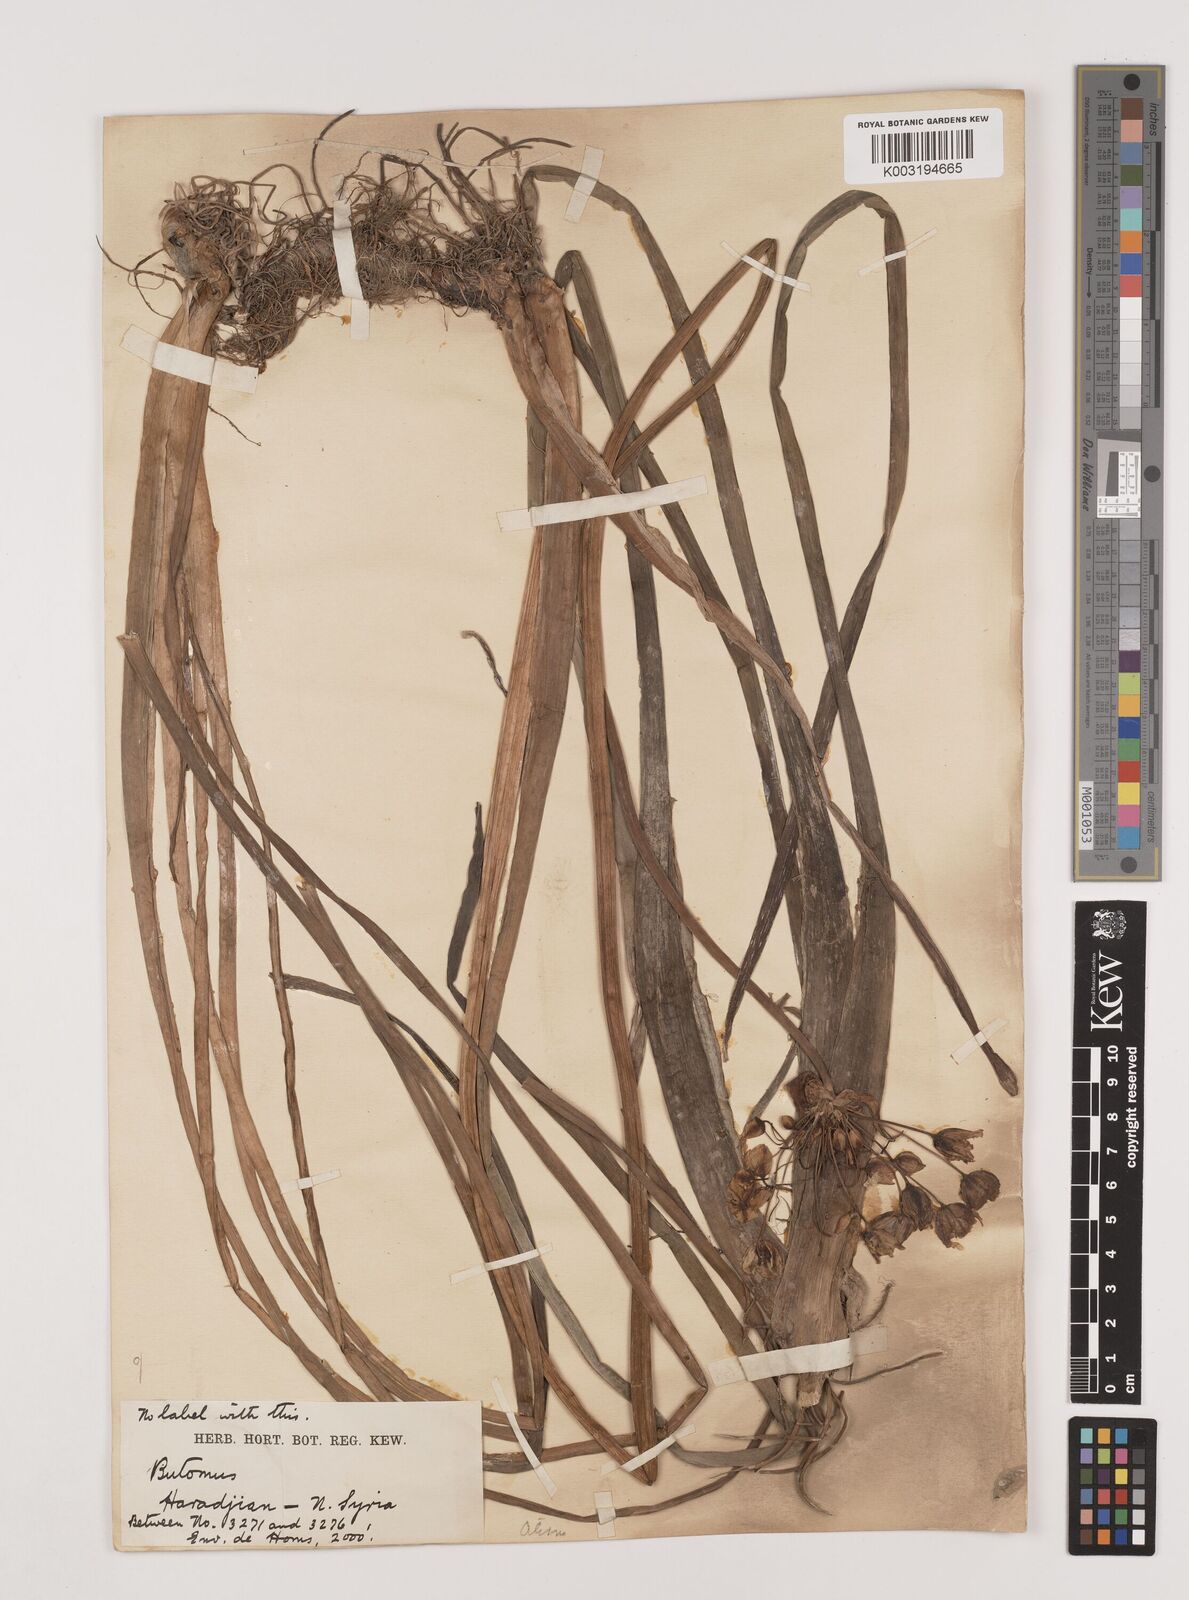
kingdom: Plantae
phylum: Tracheophyta
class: Liliopsida
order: Alismatales
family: Butomaceae
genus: Butomus
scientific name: Butomus
